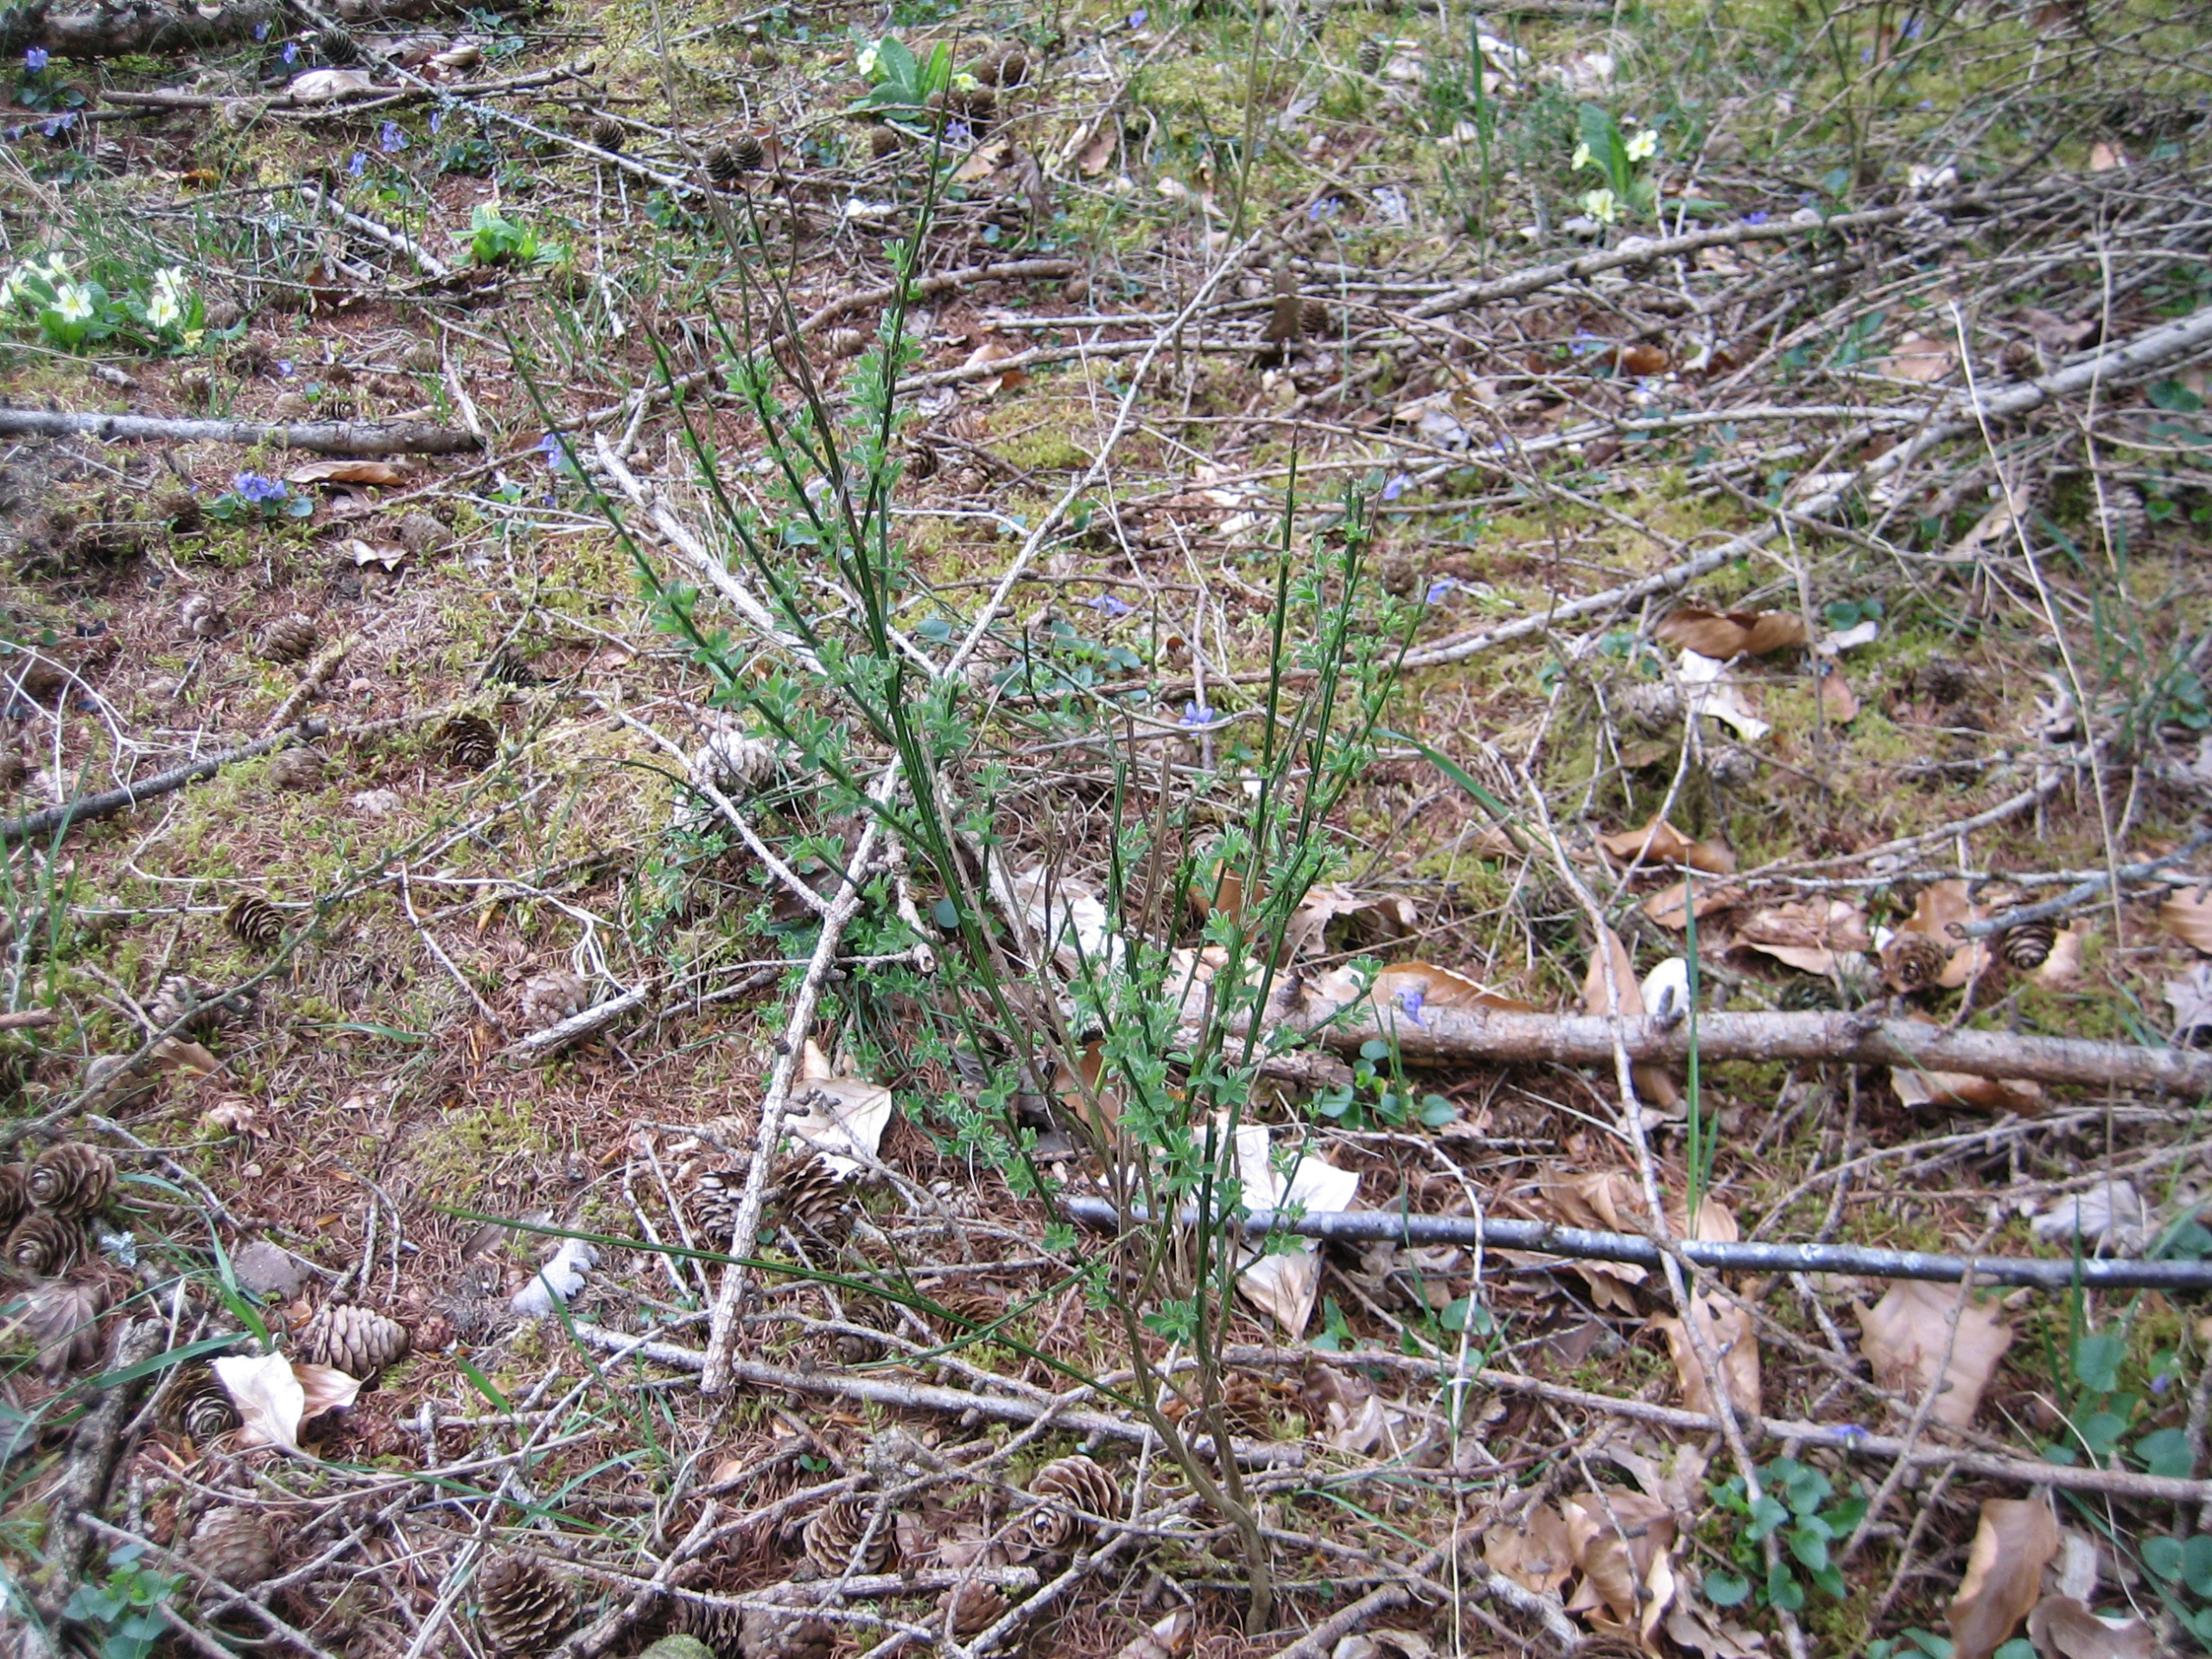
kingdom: Plantae
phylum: Tracheophyta
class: Magnoliopsida
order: Fabales
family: Fabaceae
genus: Cytisus
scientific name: Cytisus scoparius
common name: Almindelig gyvel
